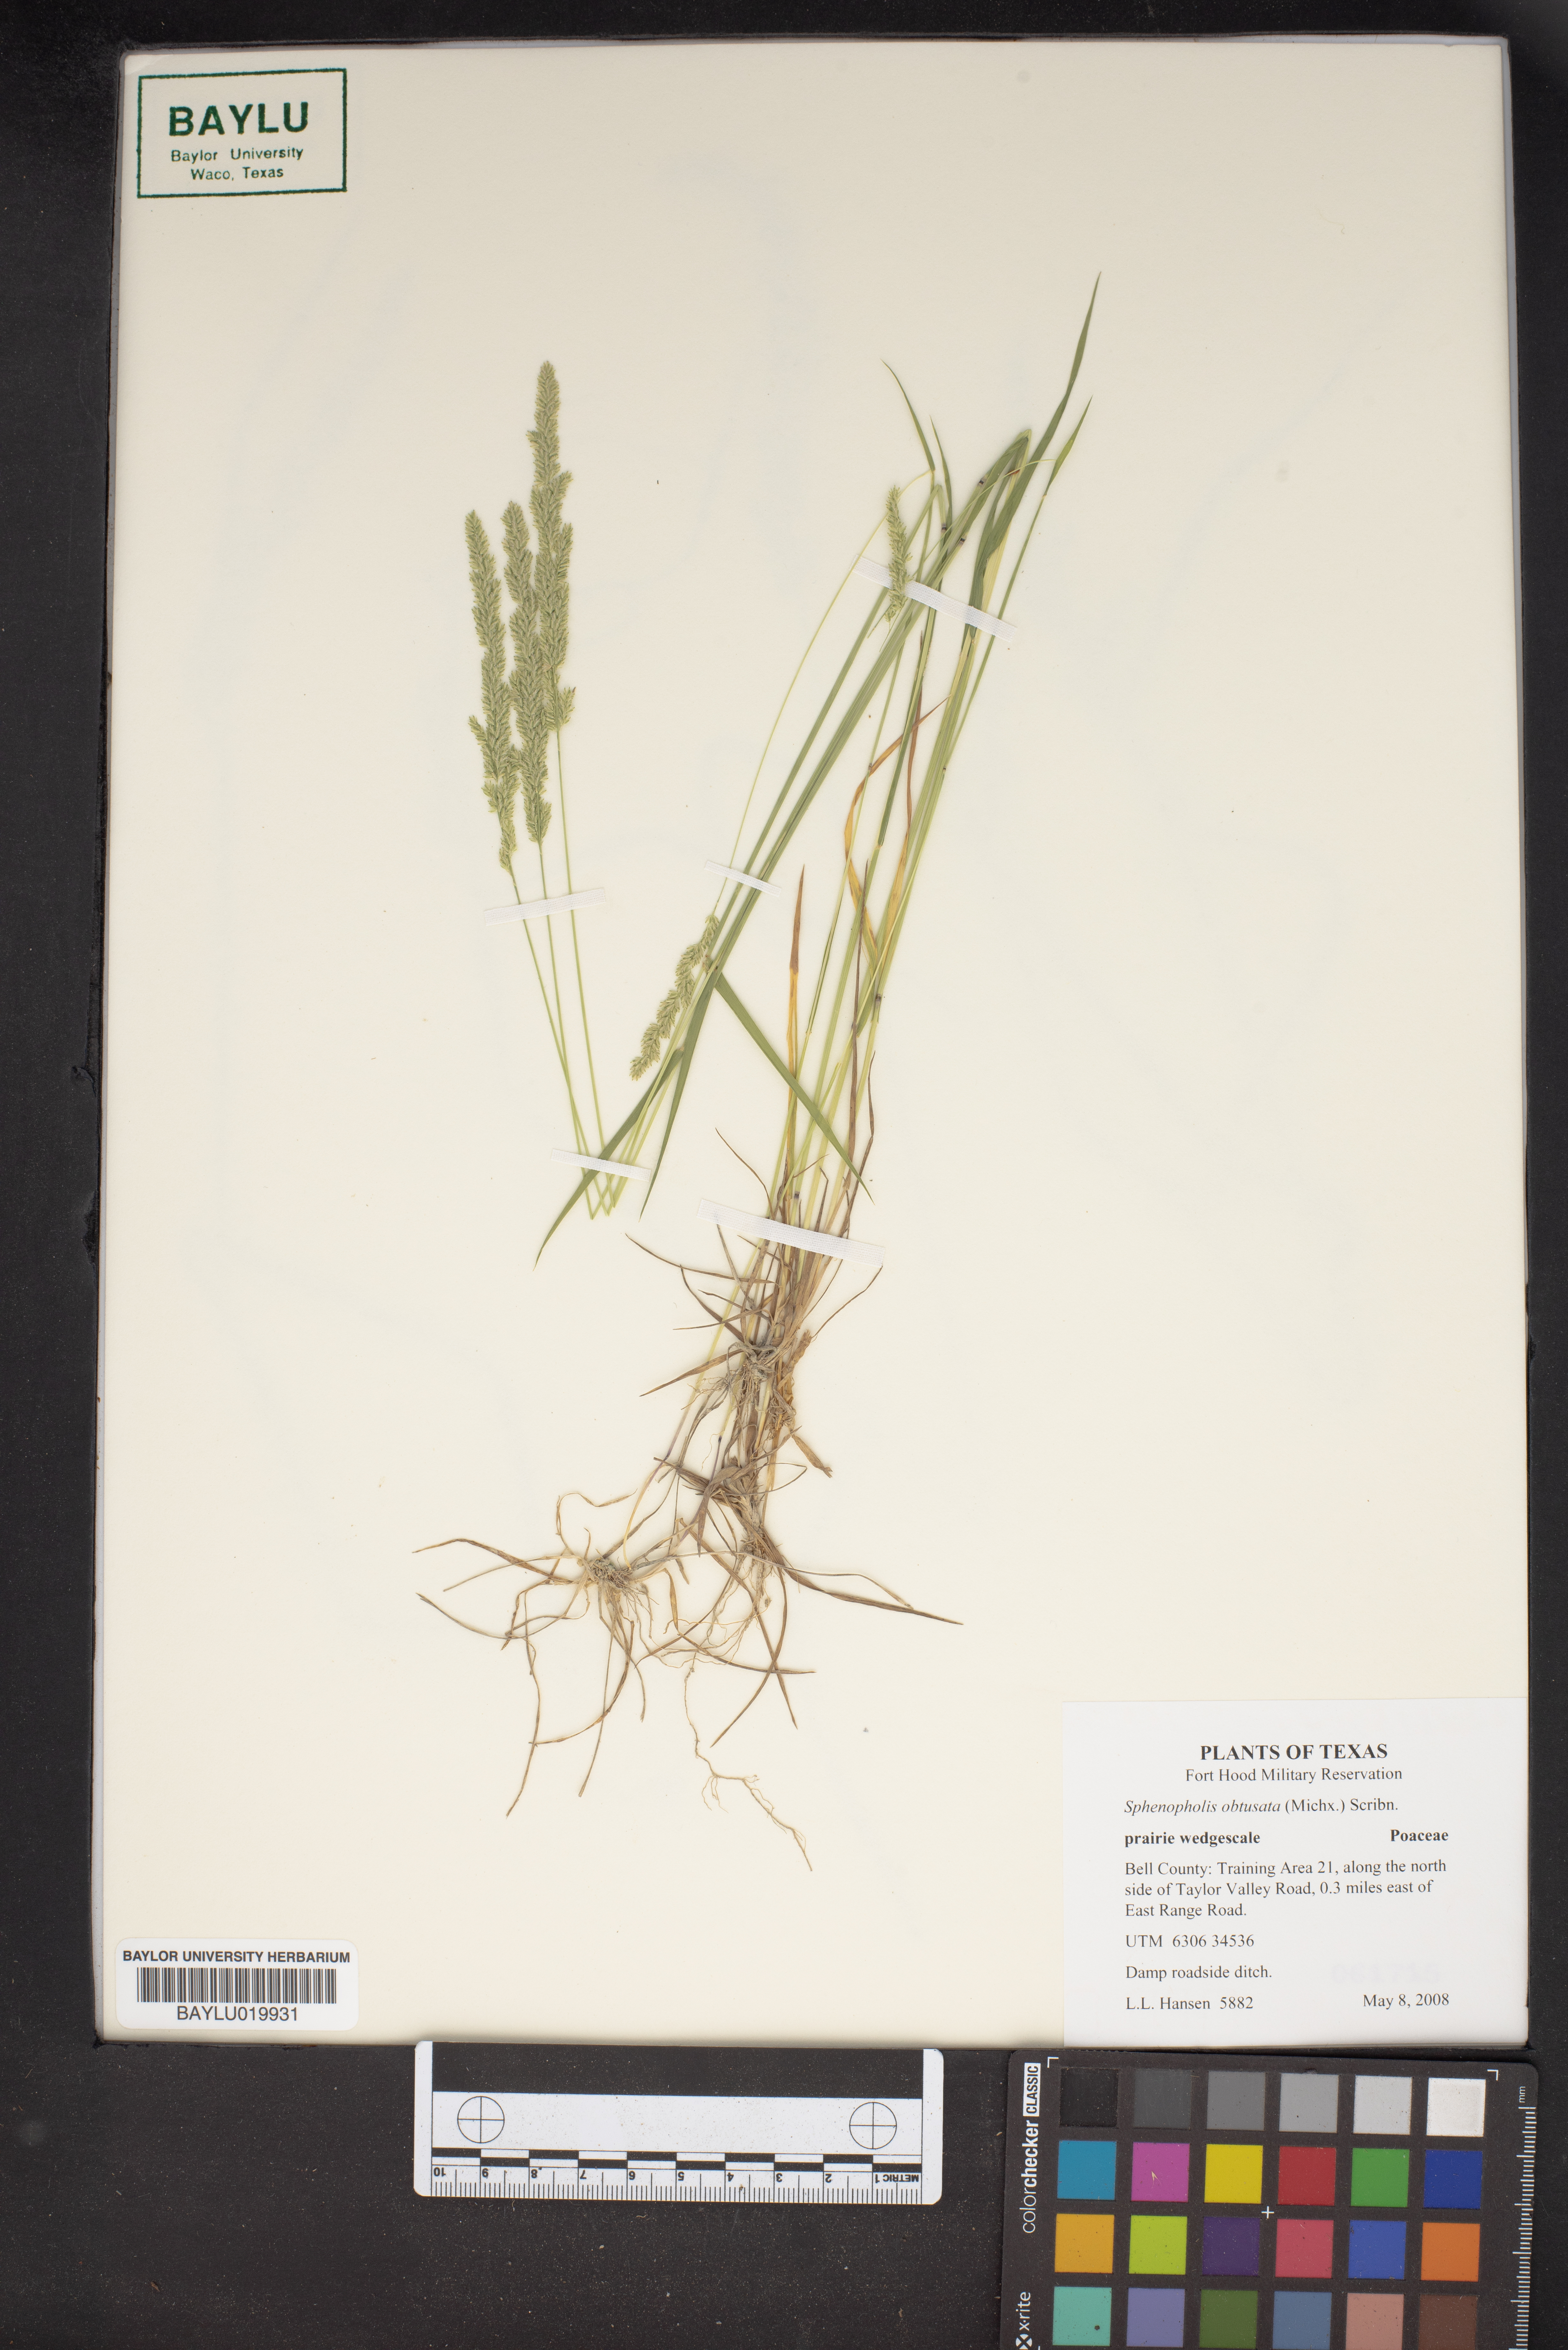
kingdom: Plantae
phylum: Tracheophyta
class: Liliopsida
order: Poales
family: Poaceae
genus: Sphenopholis
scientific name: Sphenopholis obtusata
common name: Prairie grass
